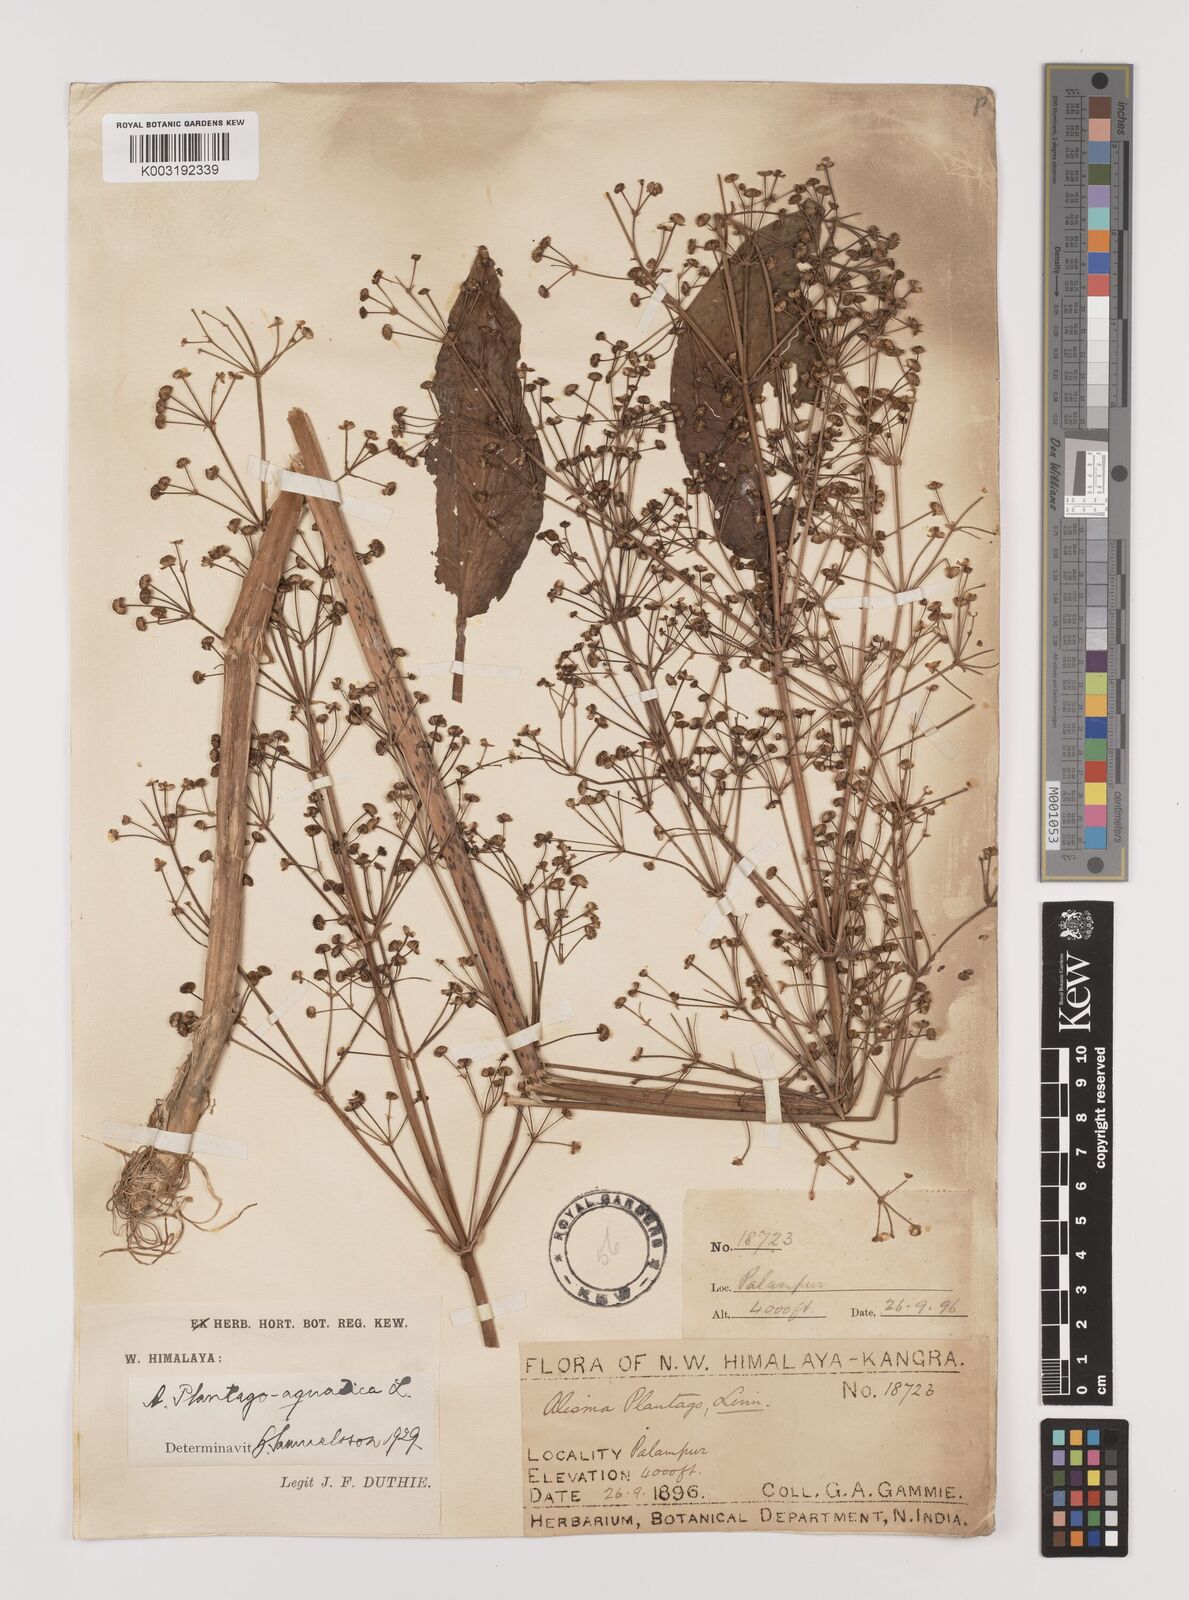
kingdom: Plantae
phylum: Tracheophyta
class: Liliopsida
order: Alismatales
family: Alismataceae
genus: Alisma
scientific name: Alisma plantago-aquatica
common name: Water-plantain
